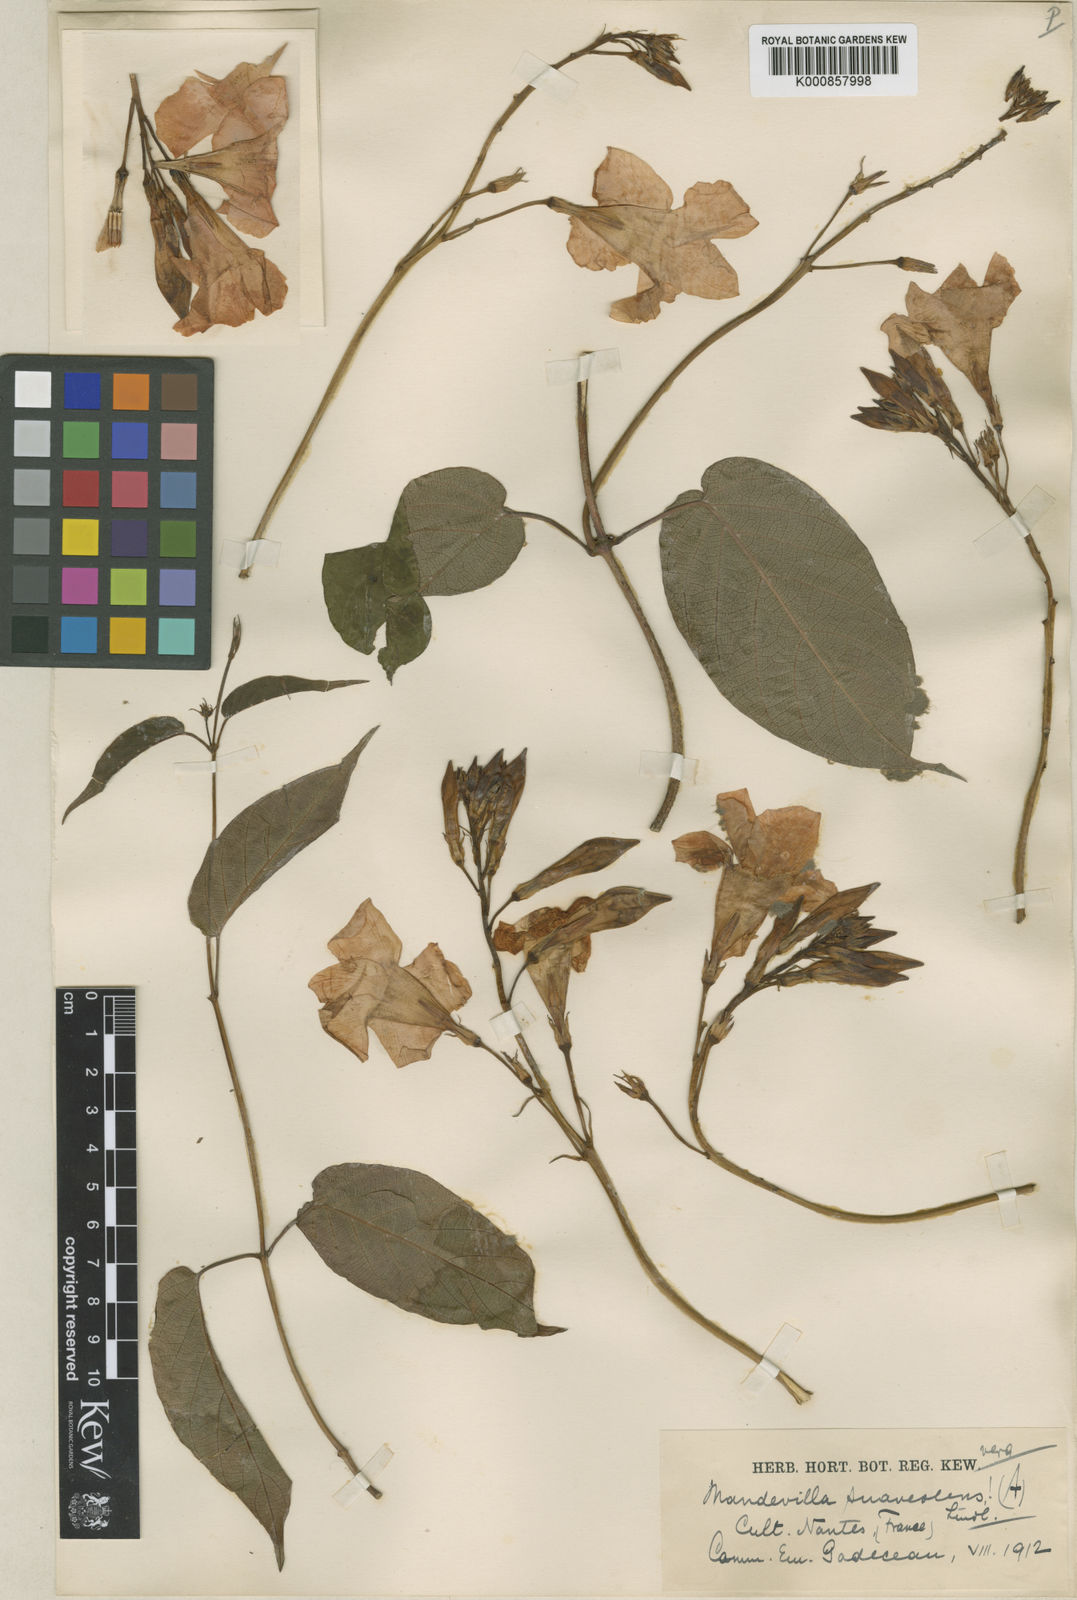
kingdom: Plantae
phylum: Tracheophyta
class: Magnoliopsida
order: Gentianales
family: Apocynaceae
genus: Mandevilla
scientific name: Mandevilla laxa
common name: Chilean-jasmine
